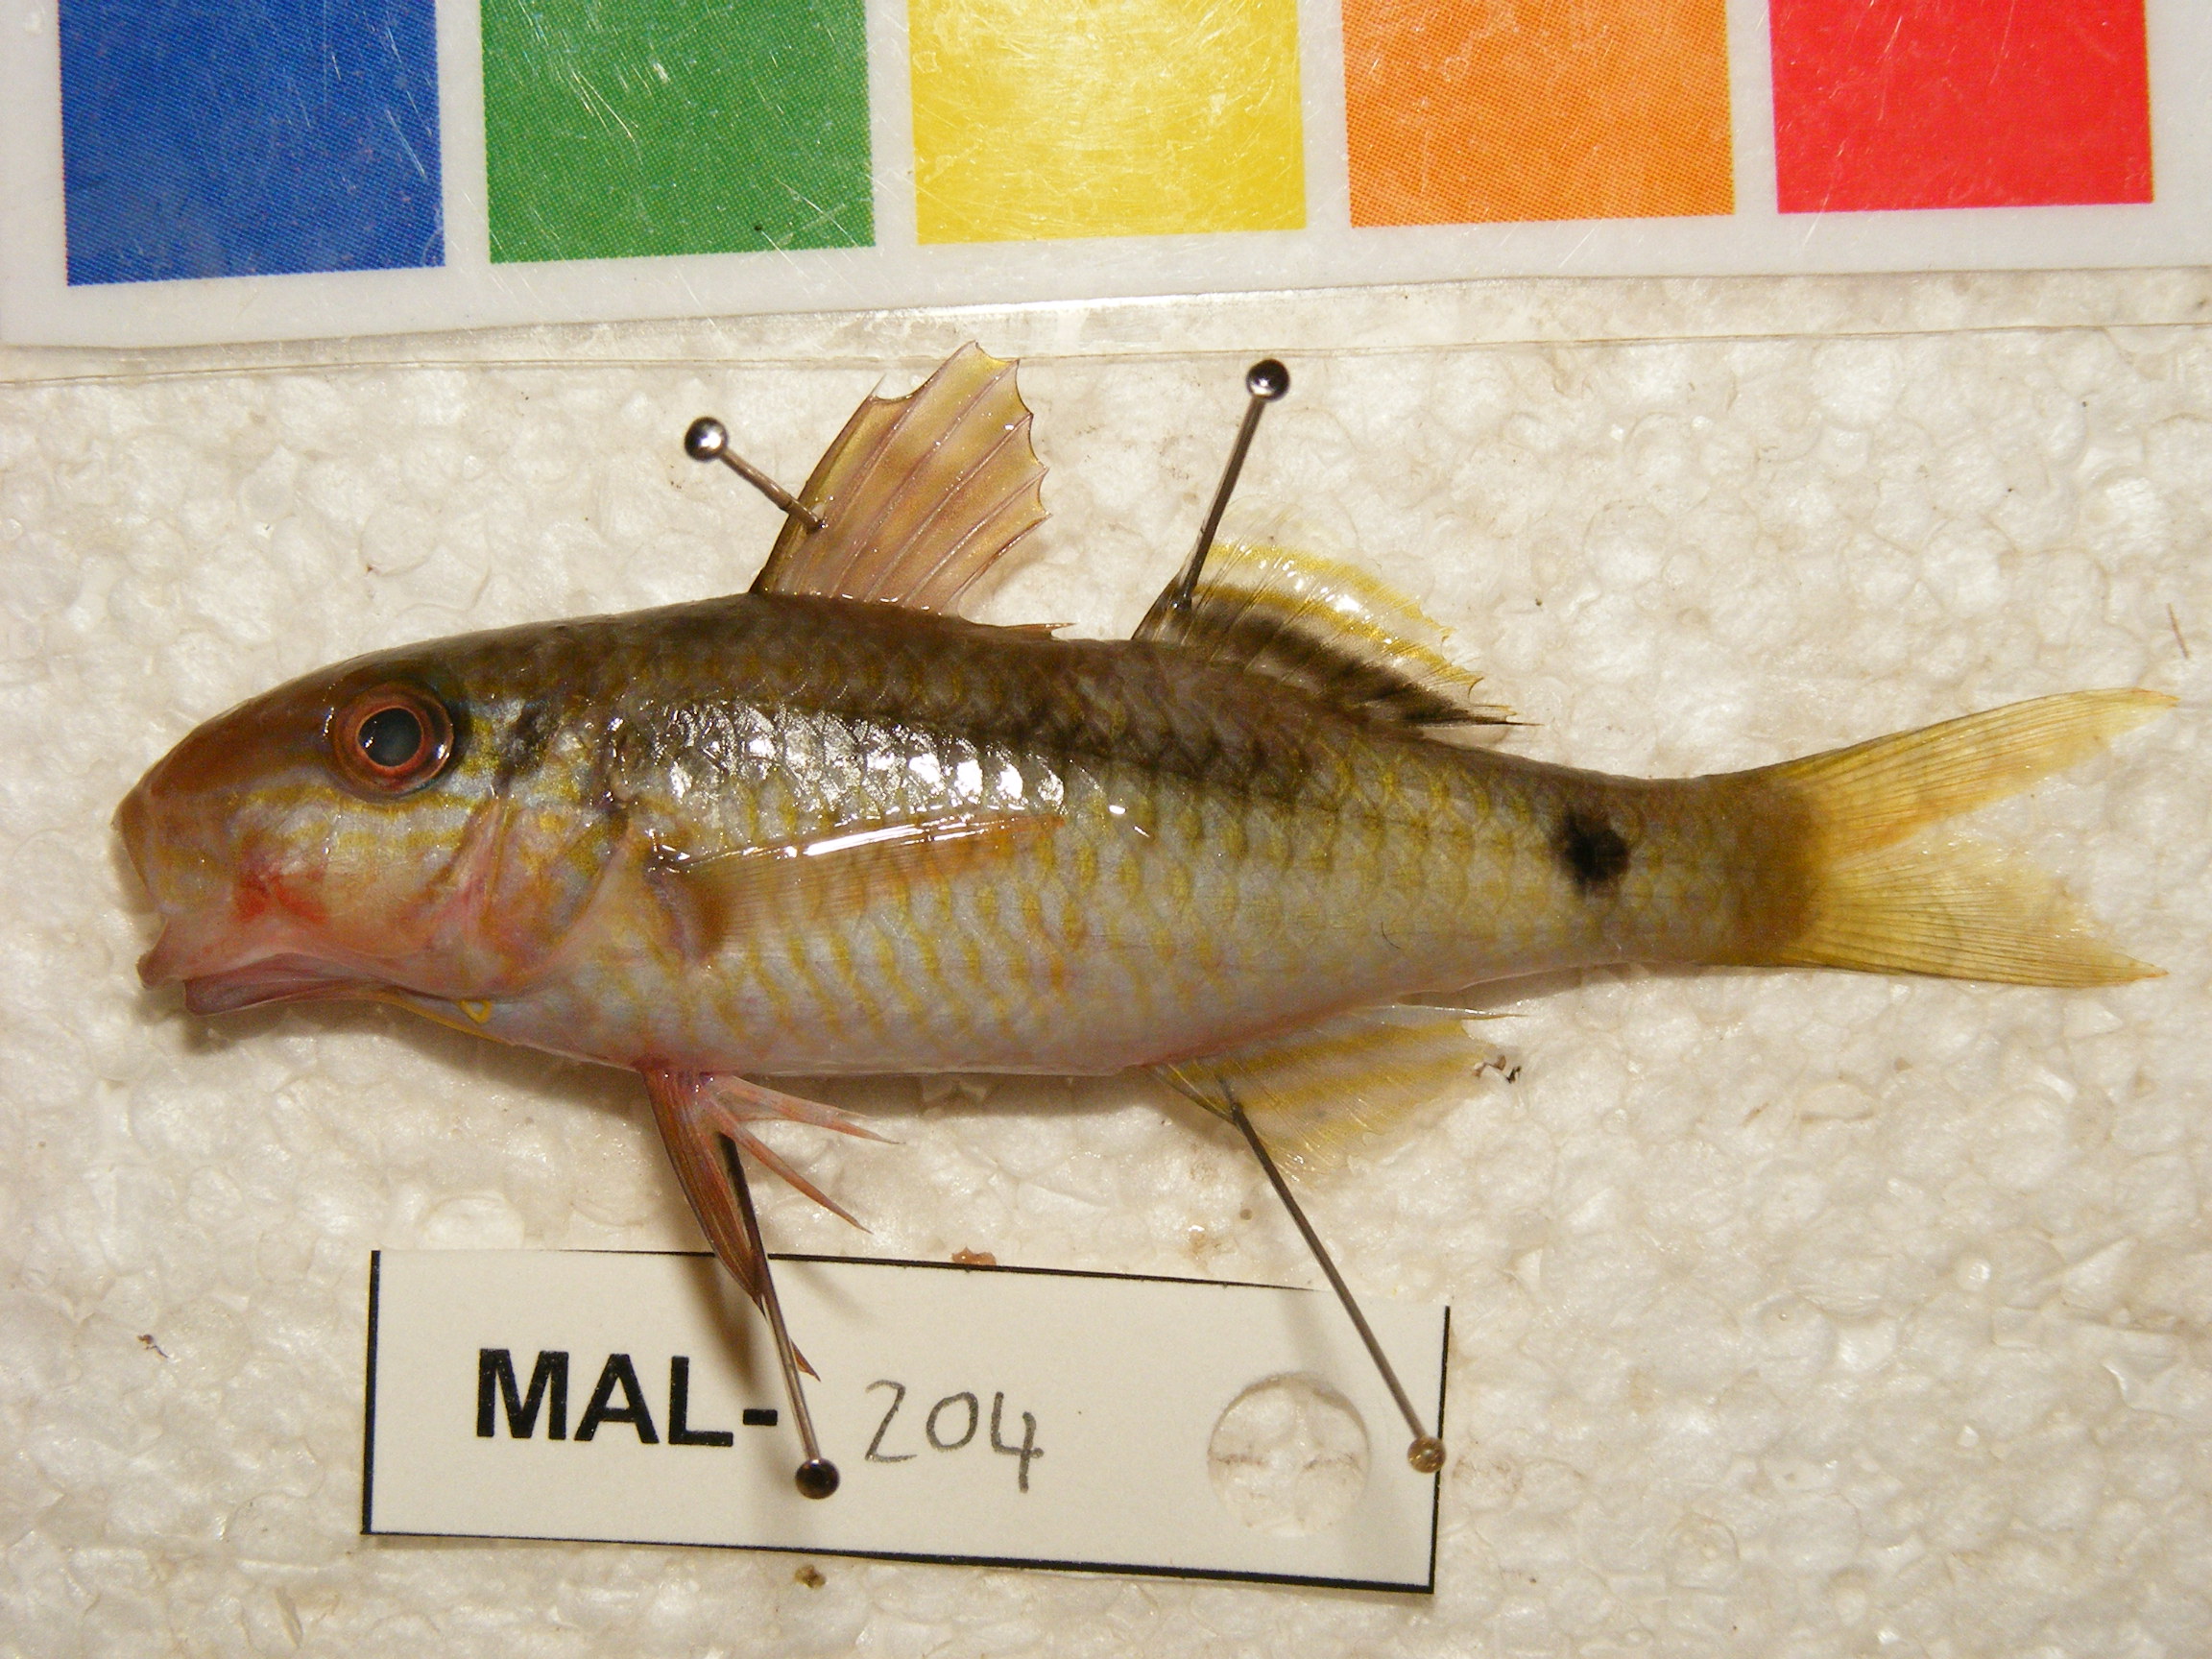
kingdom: Animalia
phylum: Chordata
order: Perciformes
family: Mullidae
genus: Parupeneus
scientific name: Parupeneus macronemus
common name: Long-barbel goatfish
